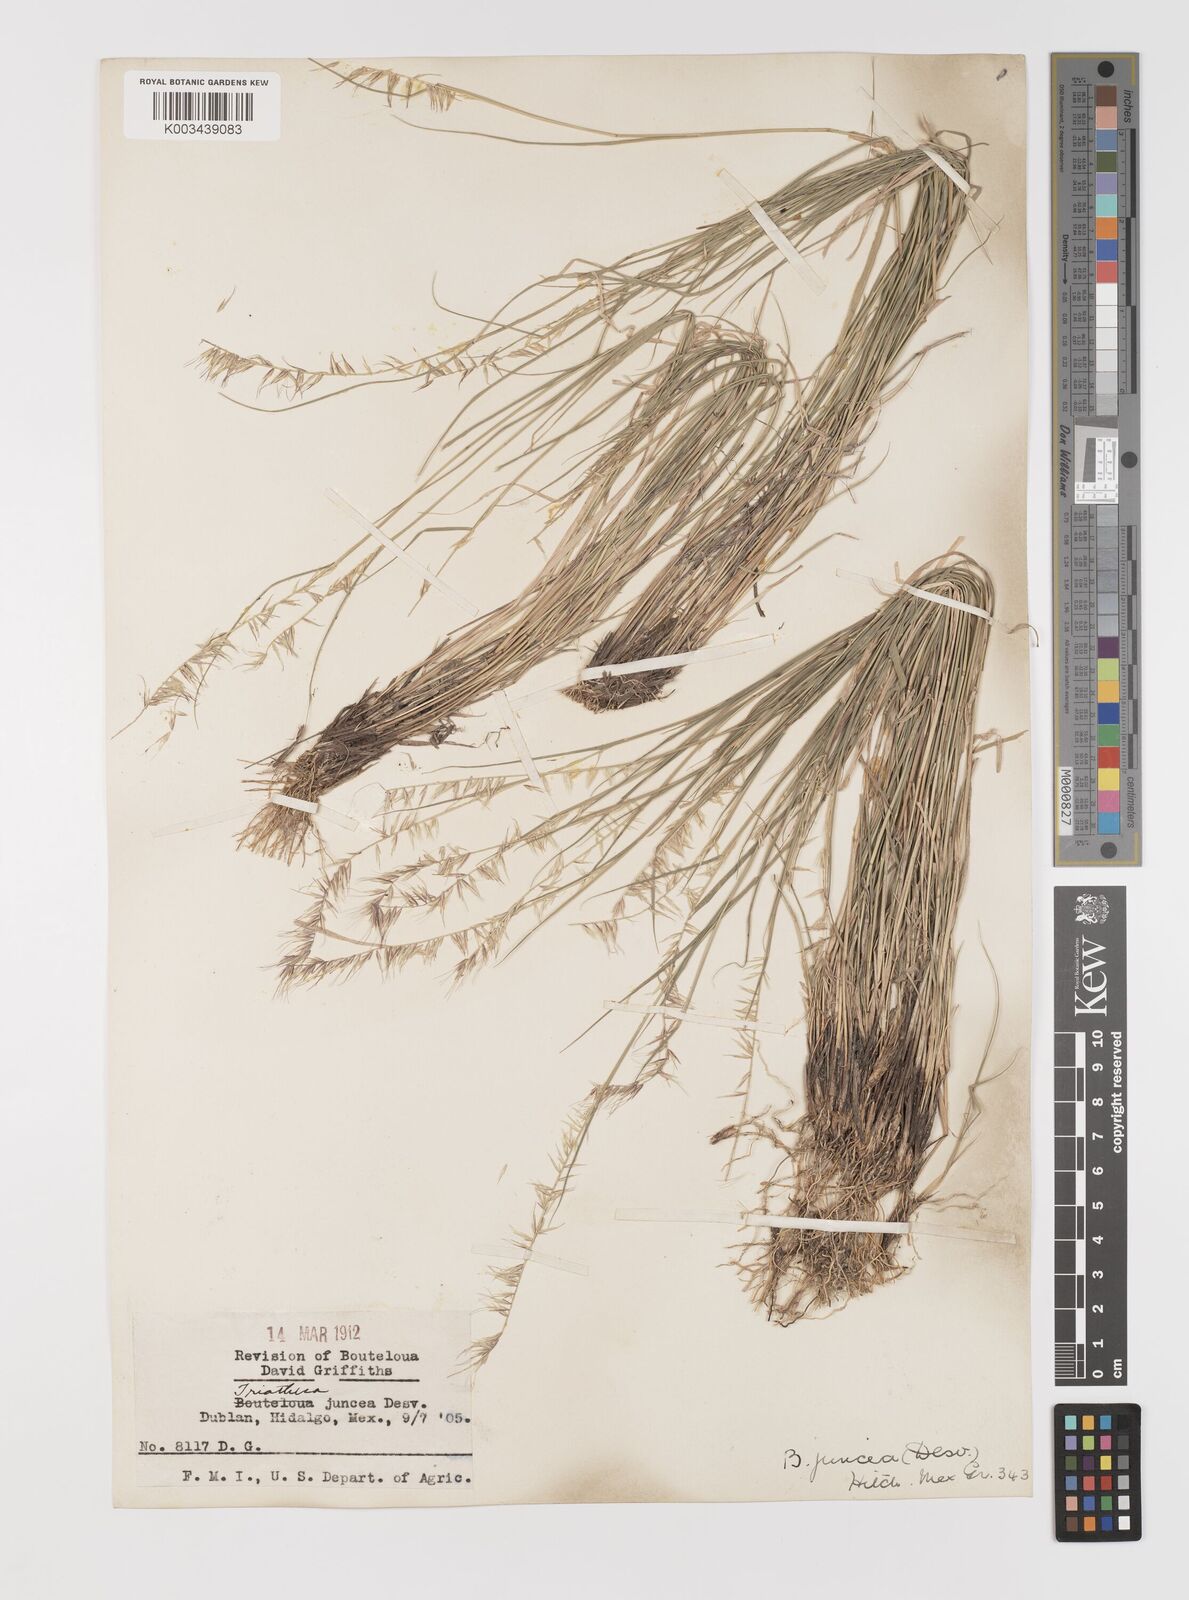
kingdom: Plantae
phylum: Tracheophyta
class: Liliopsida
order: Poales
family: Poaceae
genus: Bouteloua
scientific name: Bouteloua triaena
